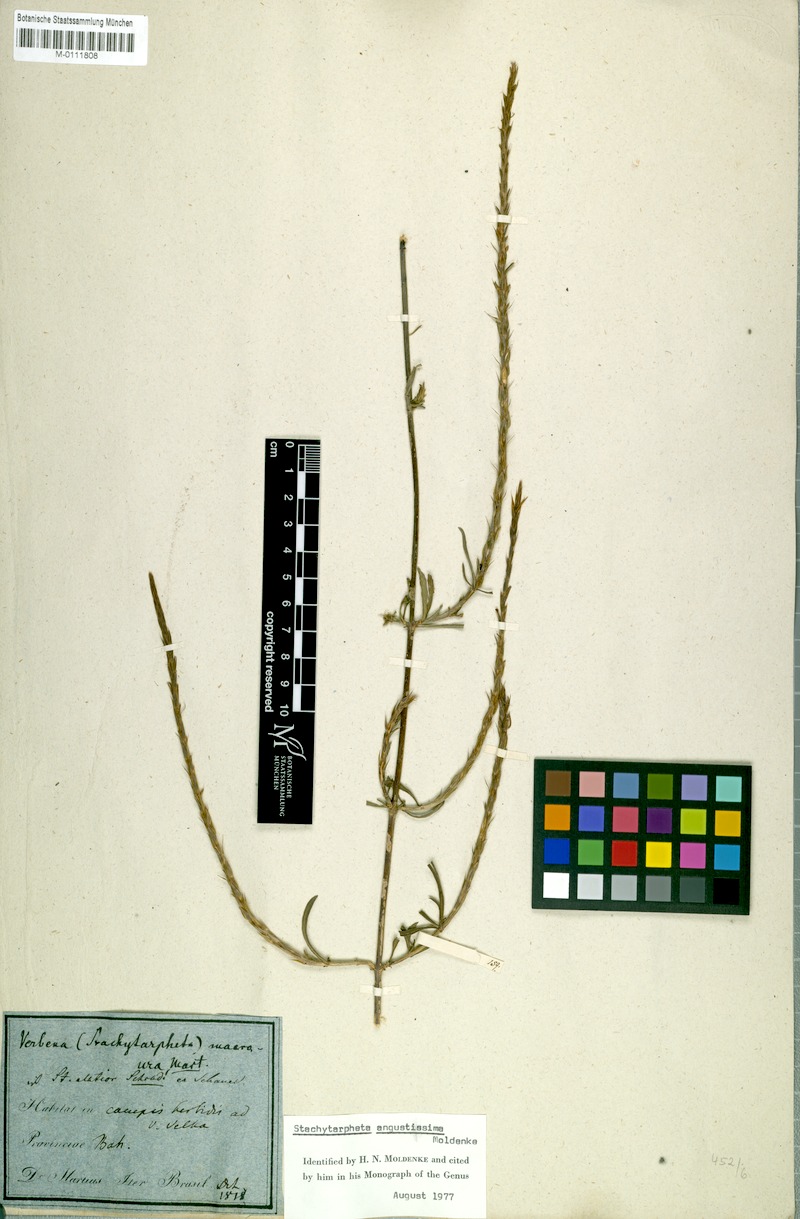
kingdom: Plantae
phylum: Tracheophyta
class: Magnoliopsida
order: Lamiales
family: Verbenaceae
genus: Stachytarpheta
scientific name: Stachytarpheta indica
